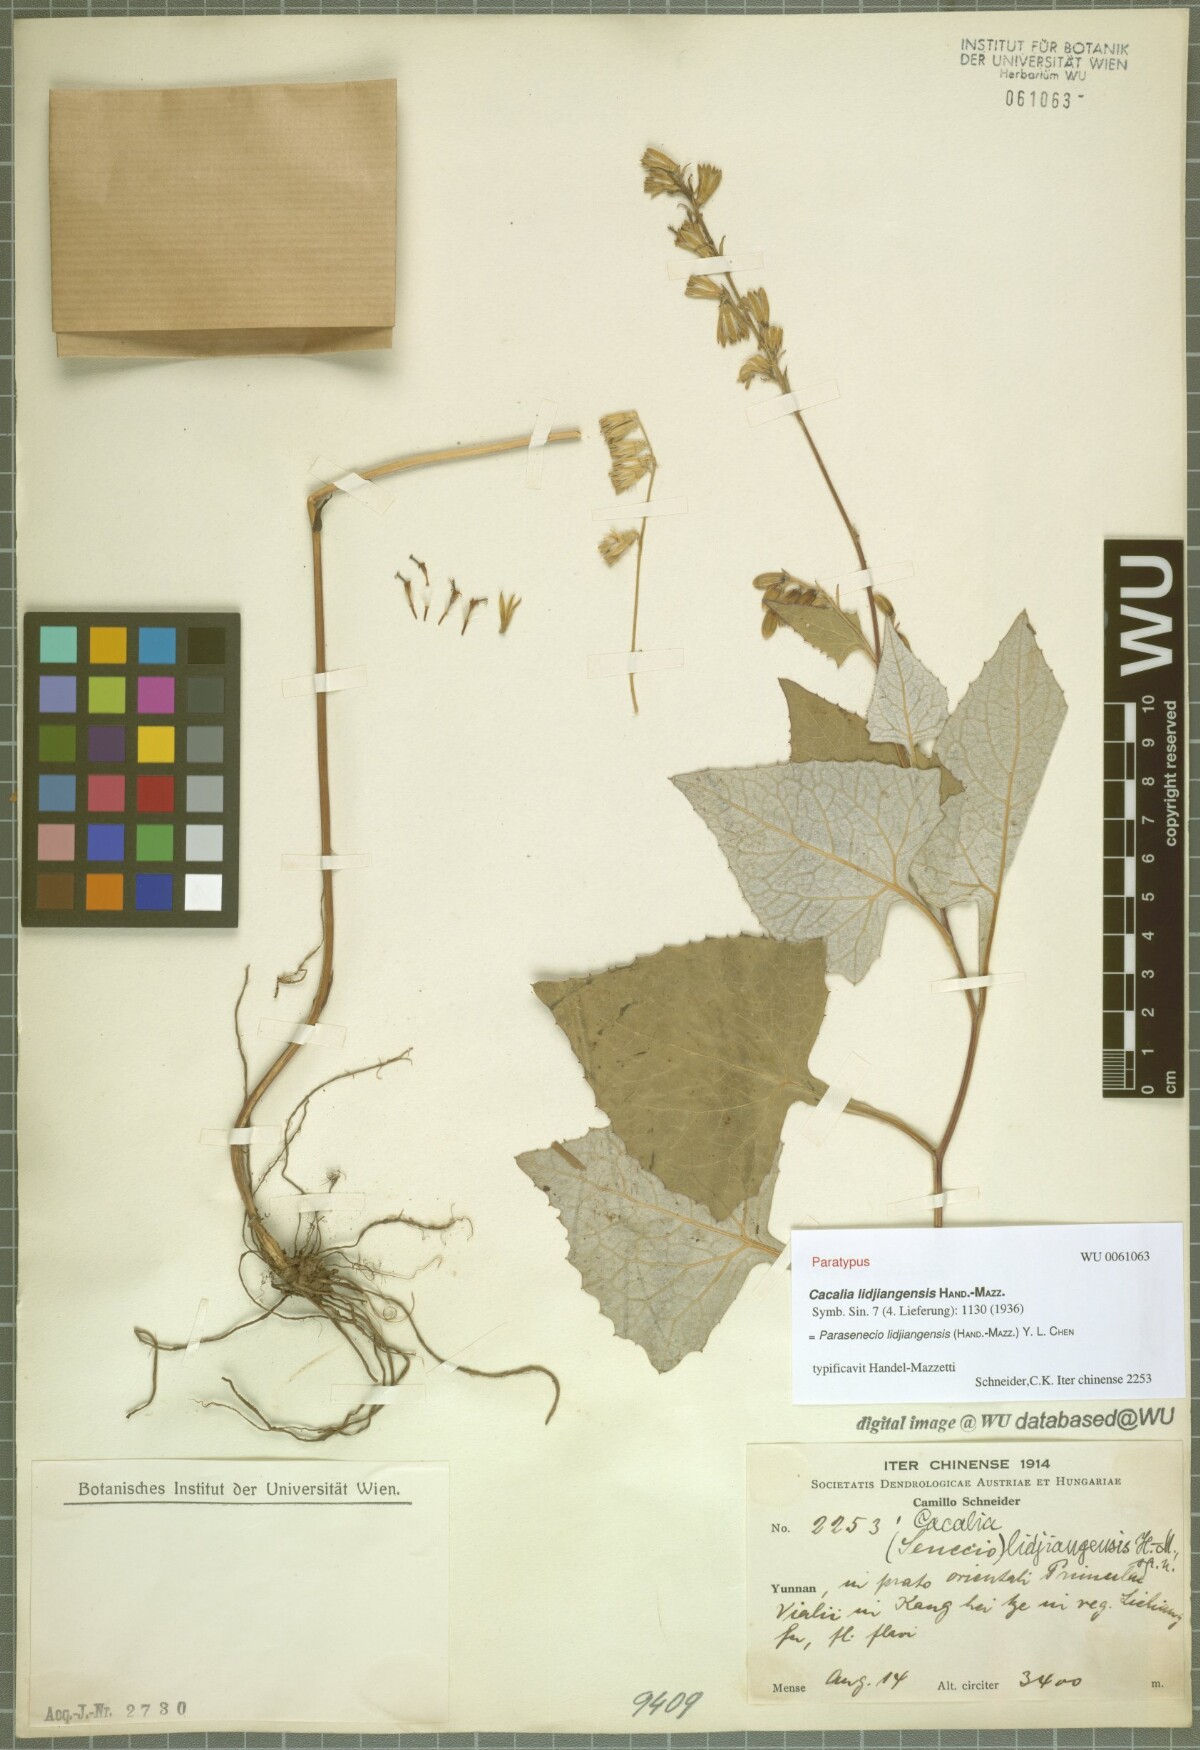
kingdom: Plantae
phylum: Tracheophyta
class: Magnoliopsida
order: Asterales
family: Asteraceae
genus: Parasenecio
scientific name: Parasenecio lidjiangensis
